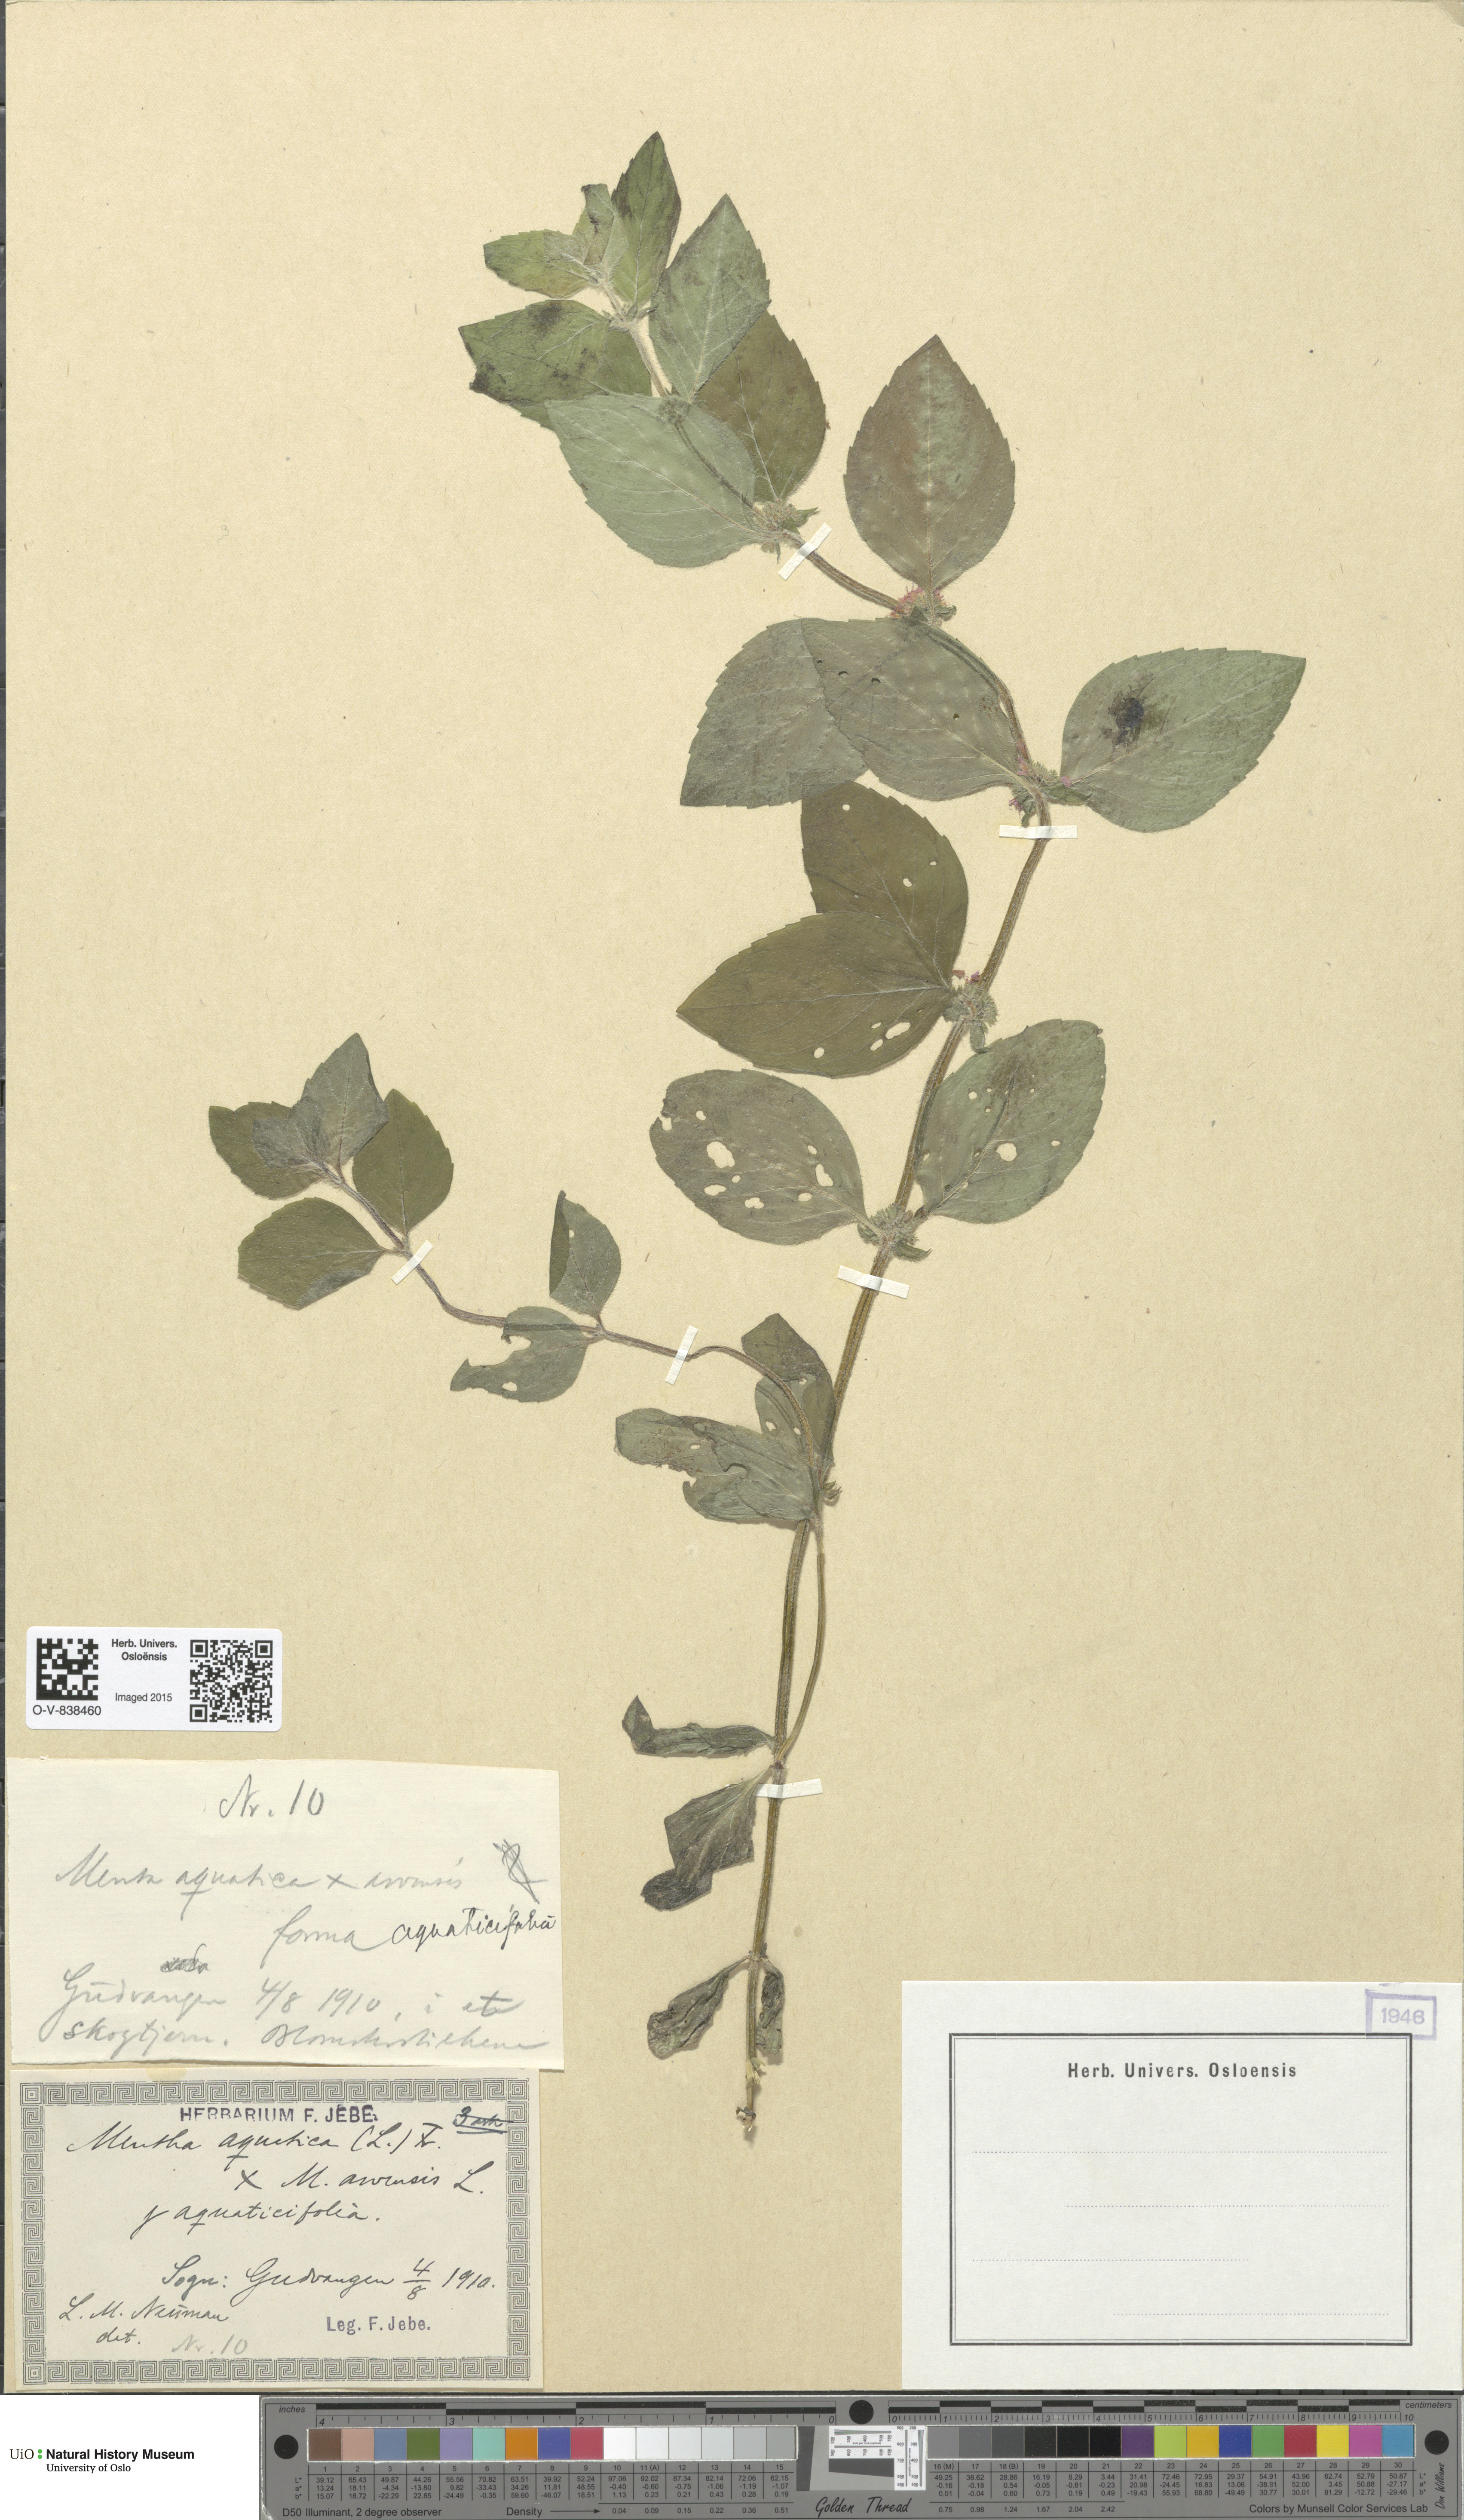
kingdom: Plantae
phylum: Tracheophyta
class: Magnoliopsida
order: Lamiales
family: Lamiaceae
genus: Mentha
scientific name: Mentha
